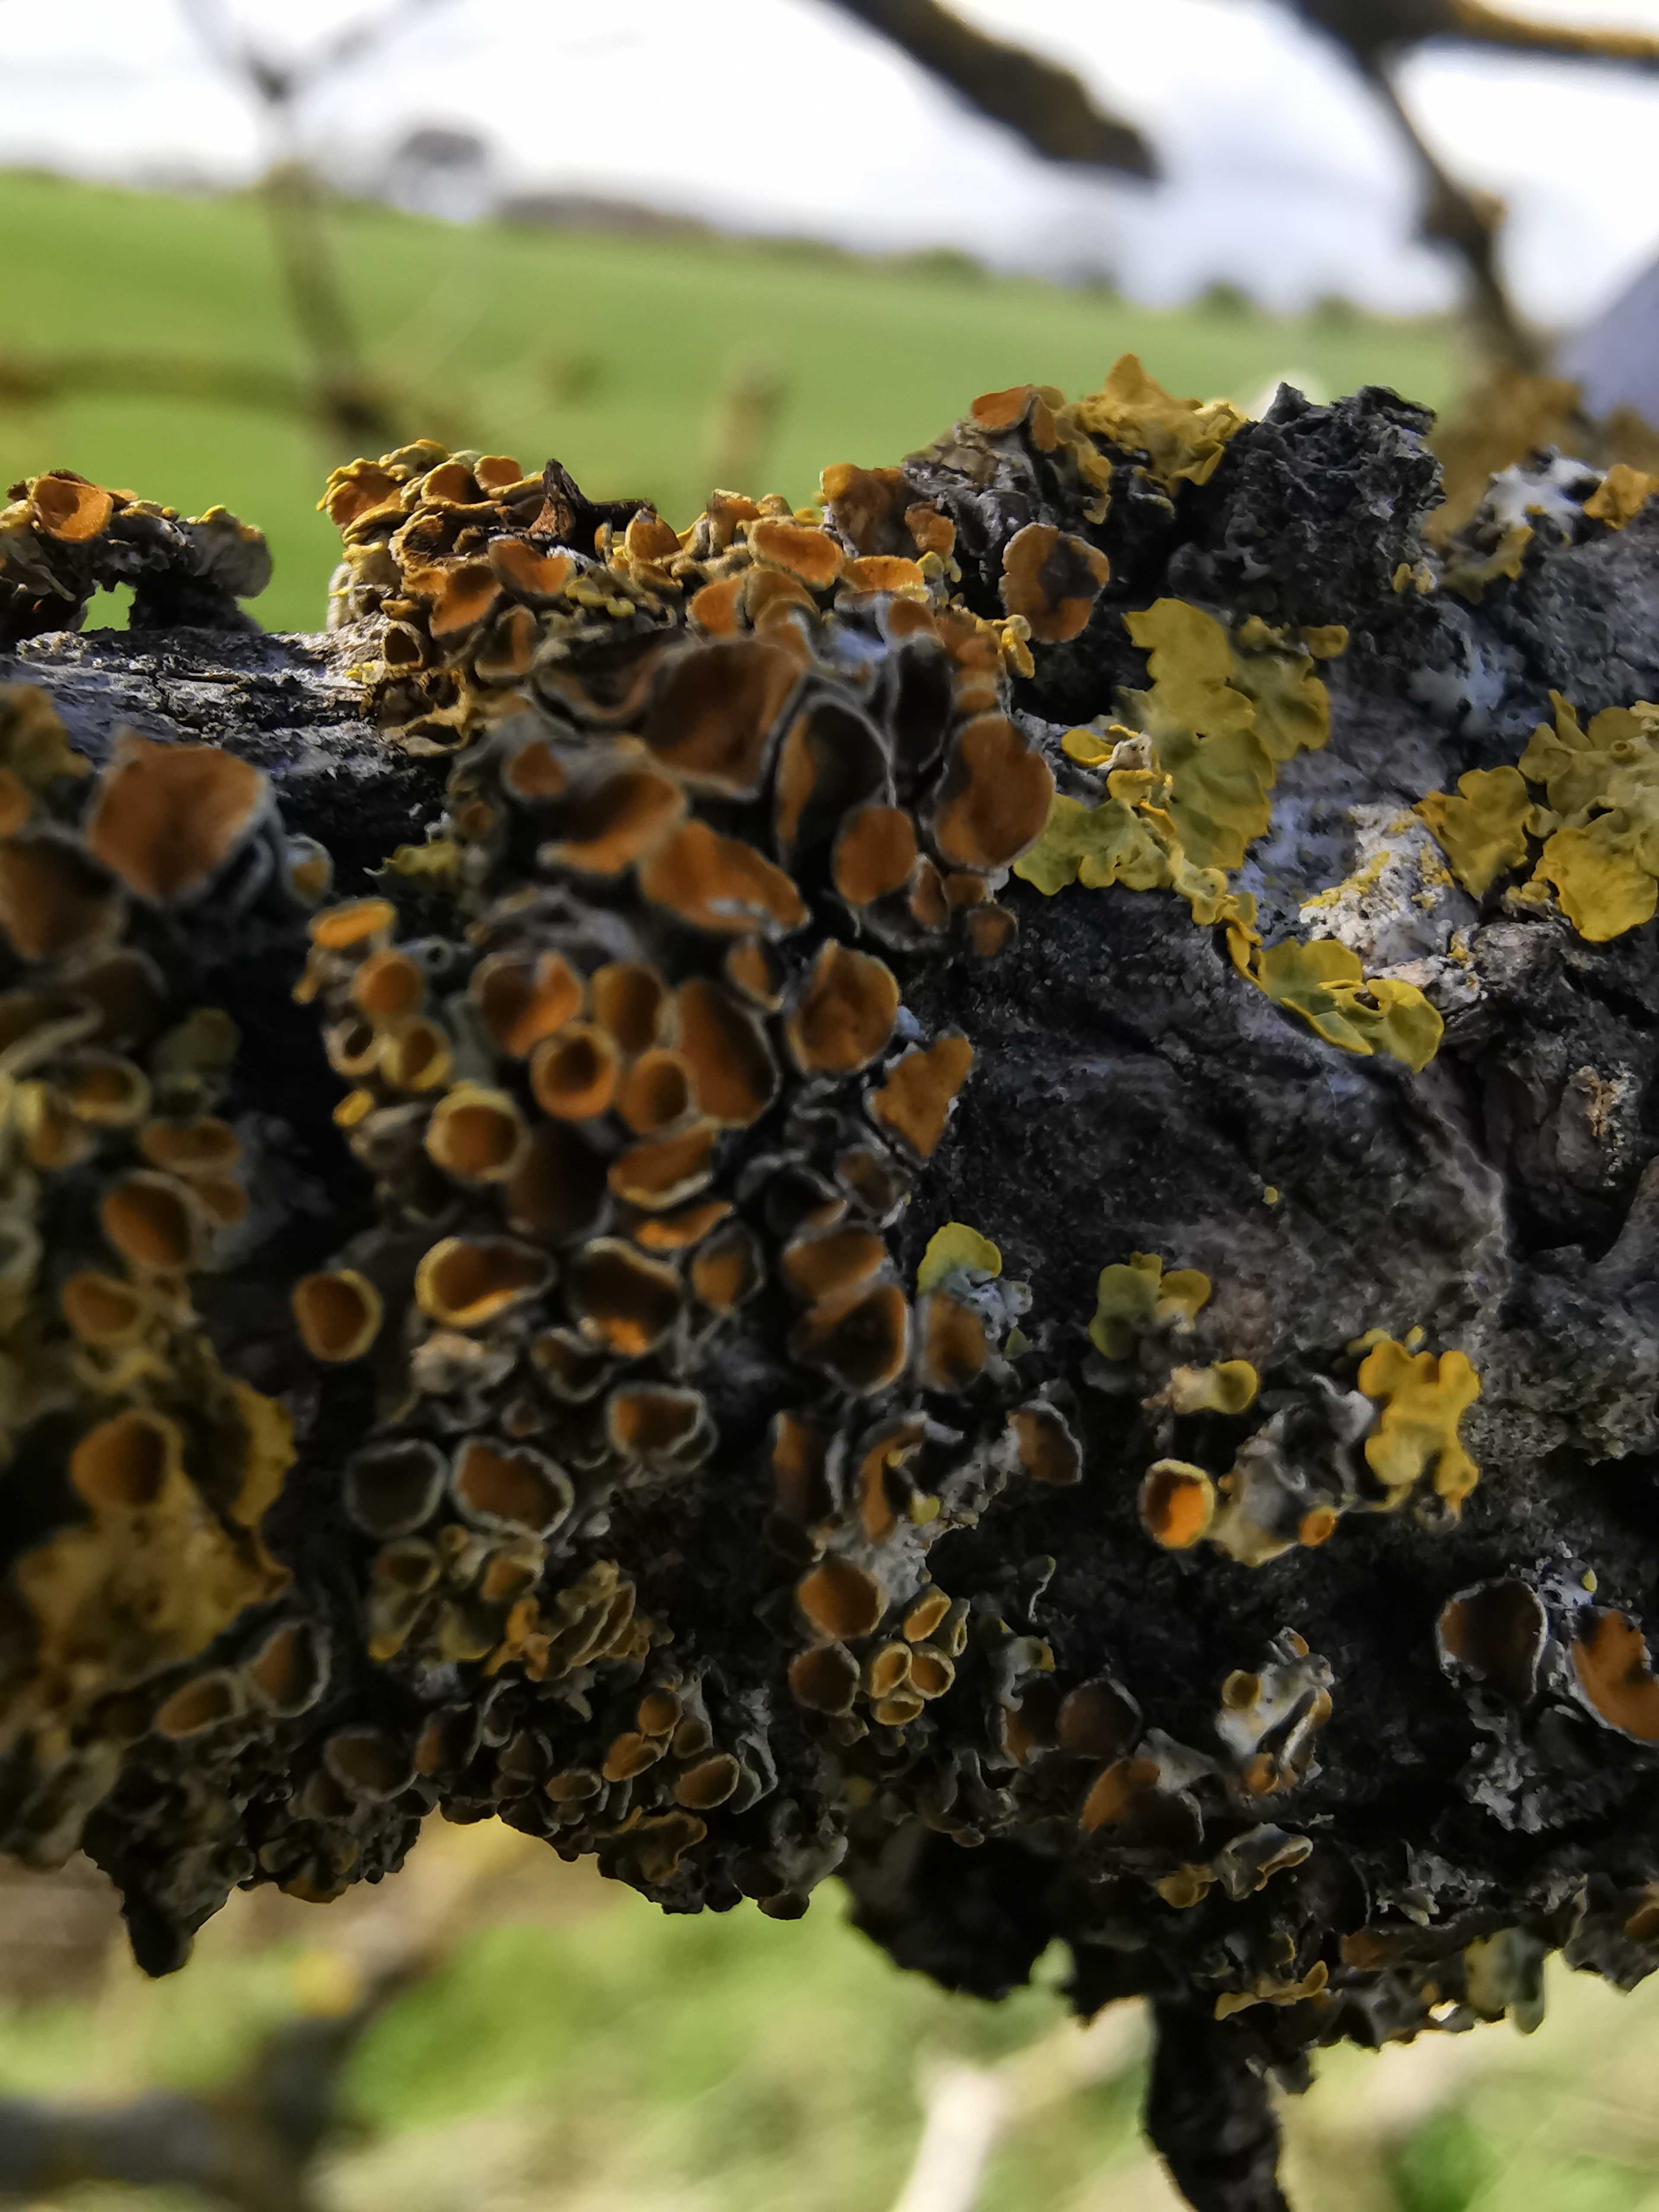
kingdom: Fungi
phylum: Ascomycota
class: Lecanoromycetes
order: Teloschistales
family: Teloschistaceae
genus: Xanthoria
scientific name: Xanthoria parietina
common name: almindelig væggelav
